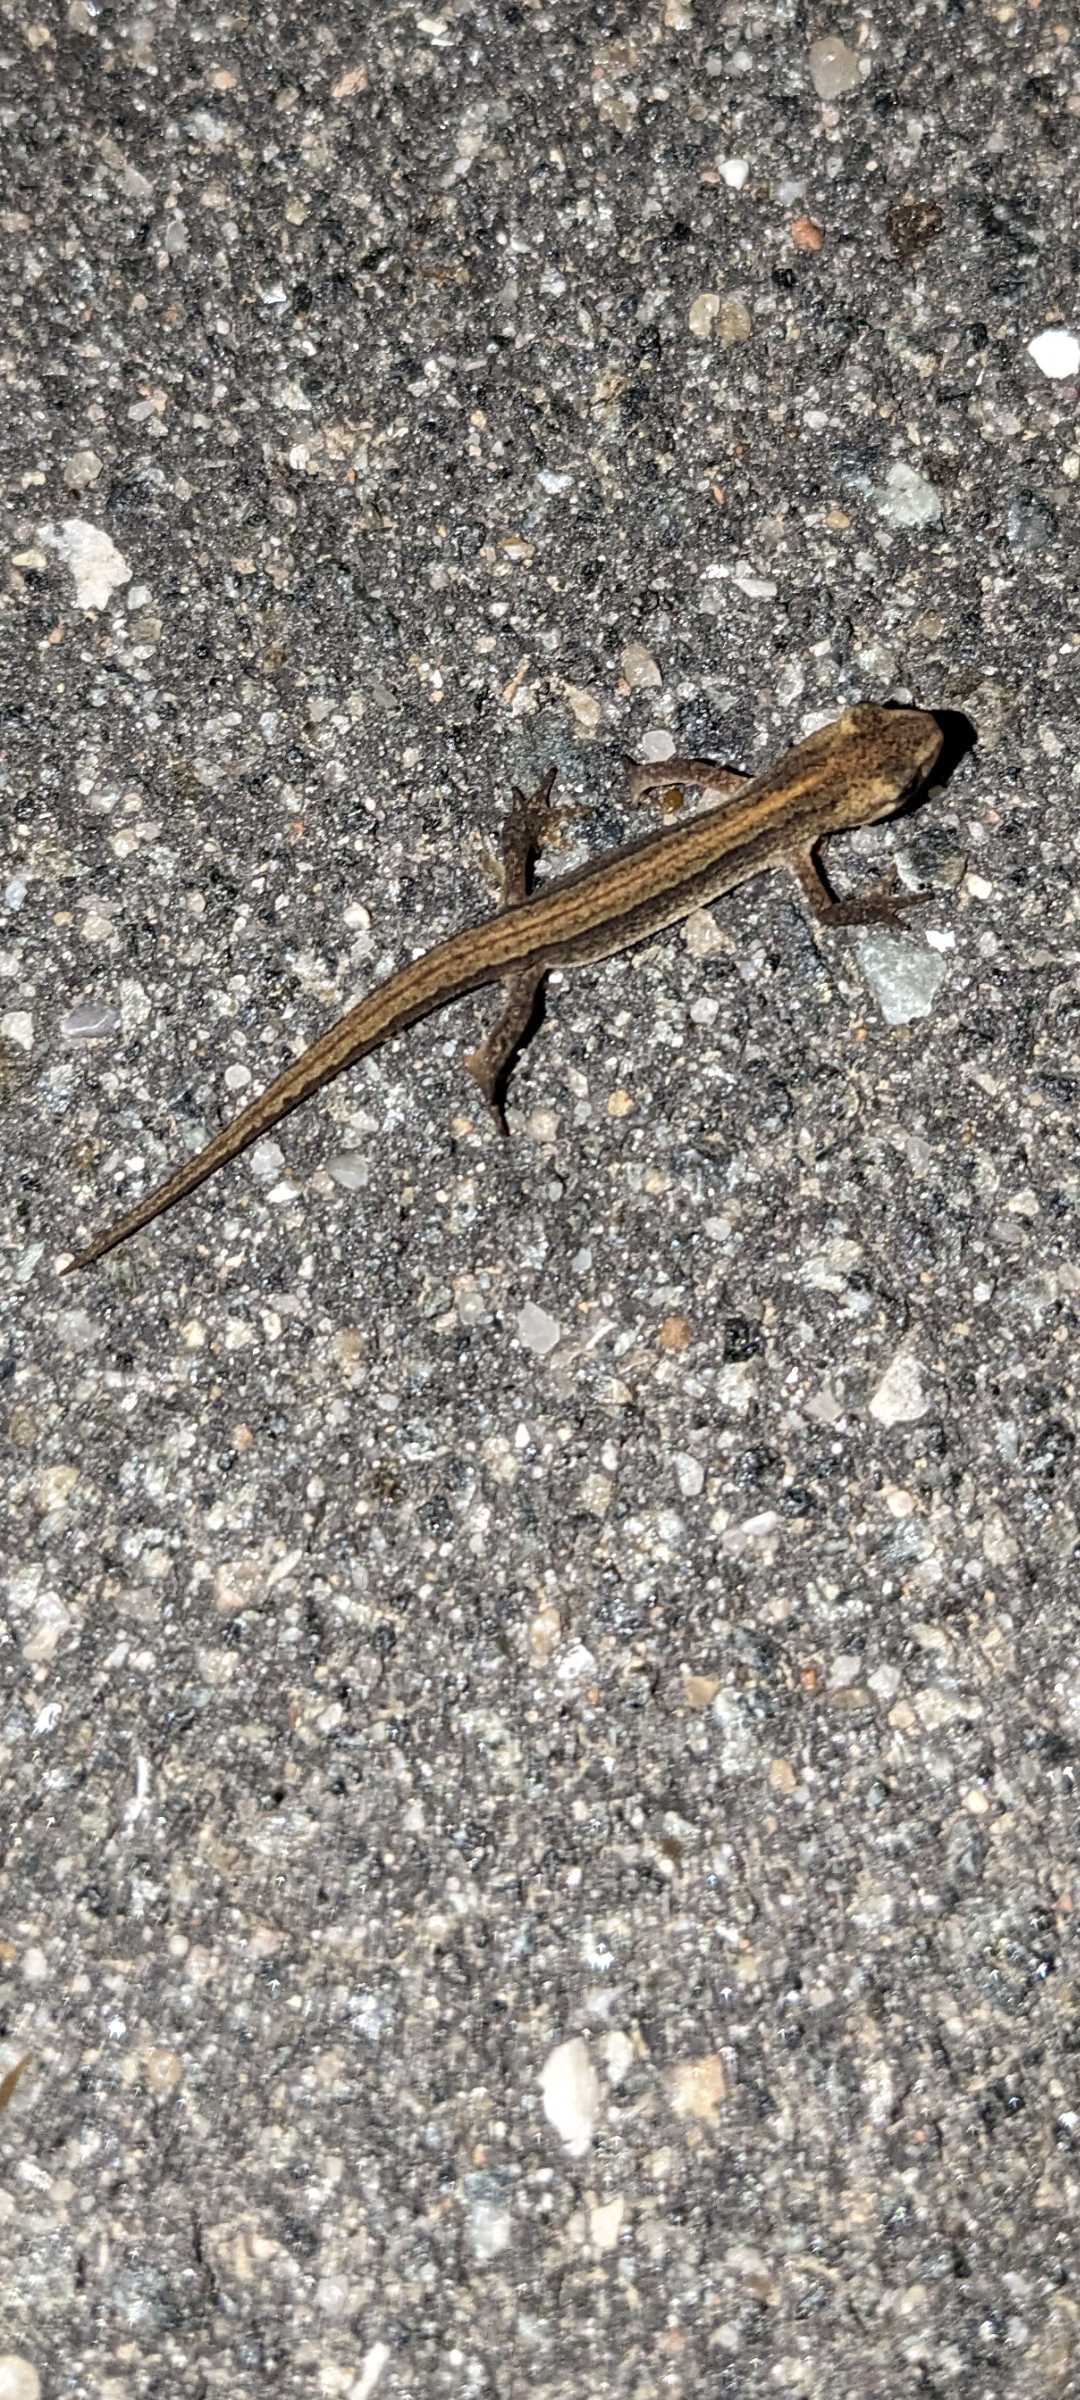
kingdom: Animalia
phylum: Chordata
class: Amphibia
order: Caudata
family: Salamandridae
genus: Lissotriton
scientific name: Lissotriton vulgaris
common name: Lille vandsalamander
